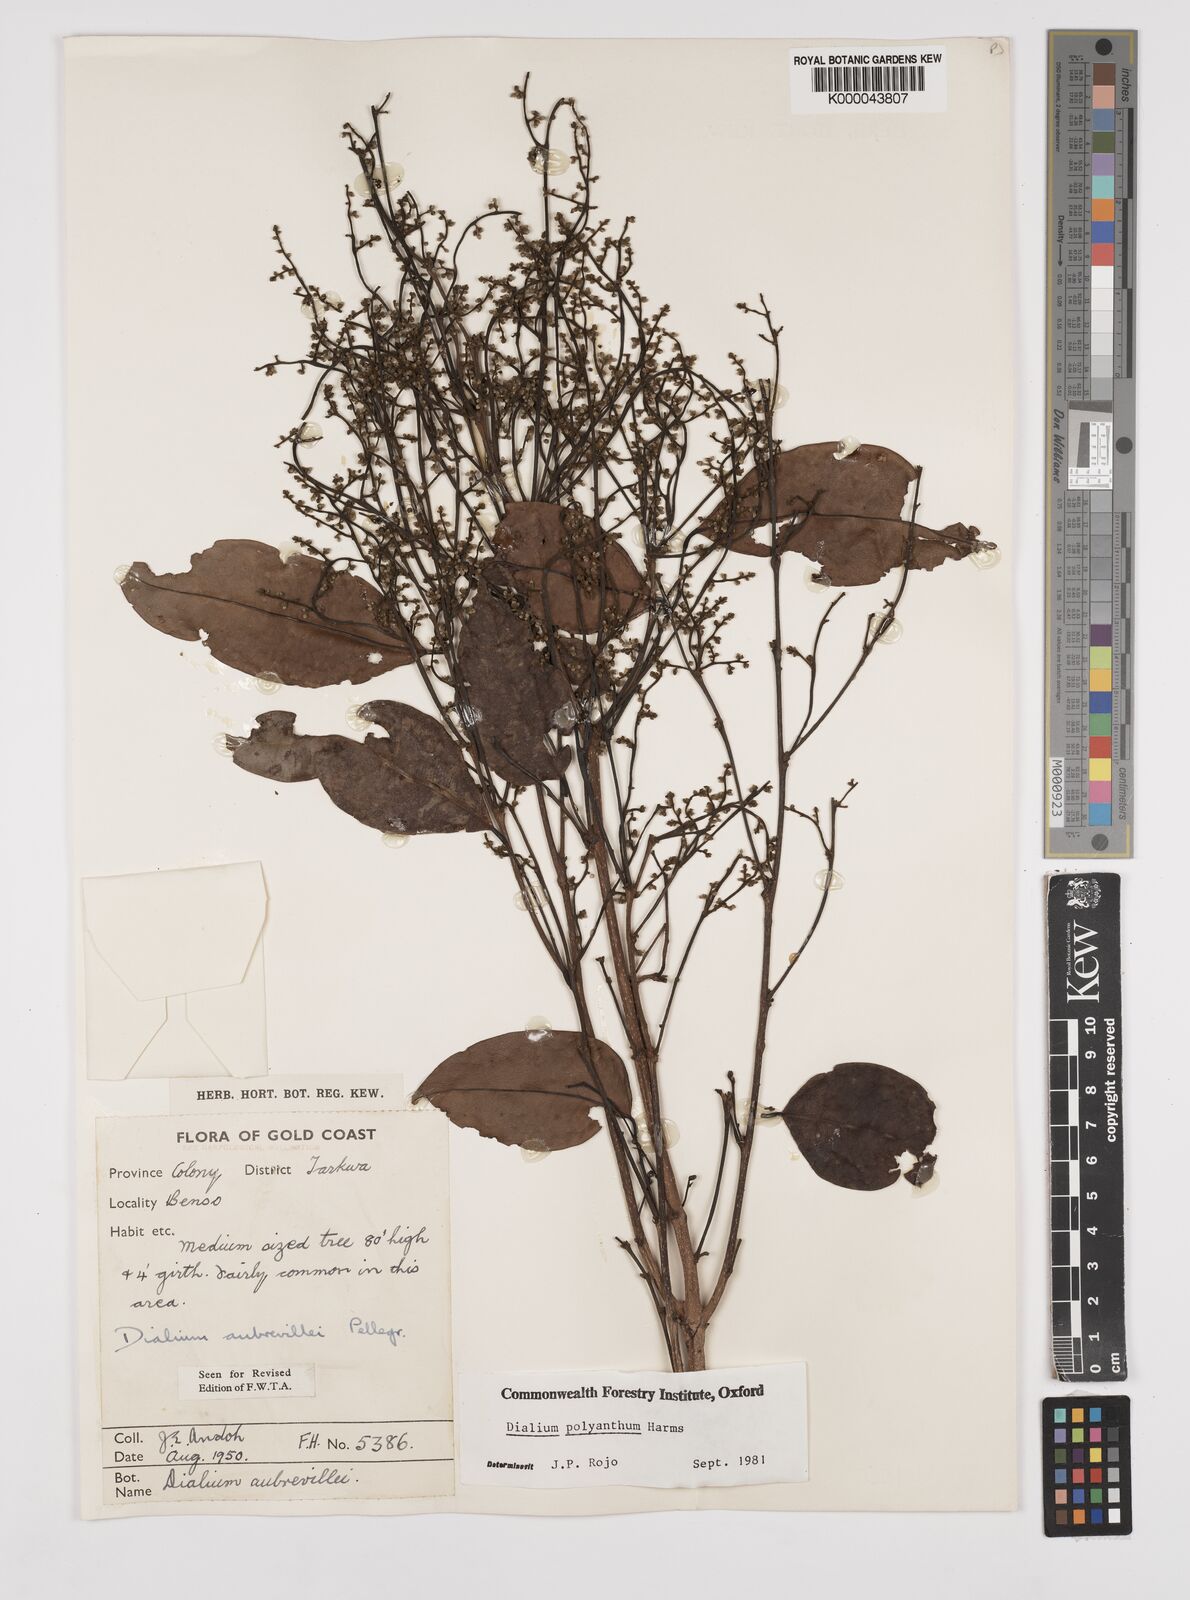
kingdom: Plantae
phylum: Tracheophyta
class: Magnoliopsida
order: Fabales
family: Fabaceae
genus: Dialium
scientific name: Dialium polyanthum
